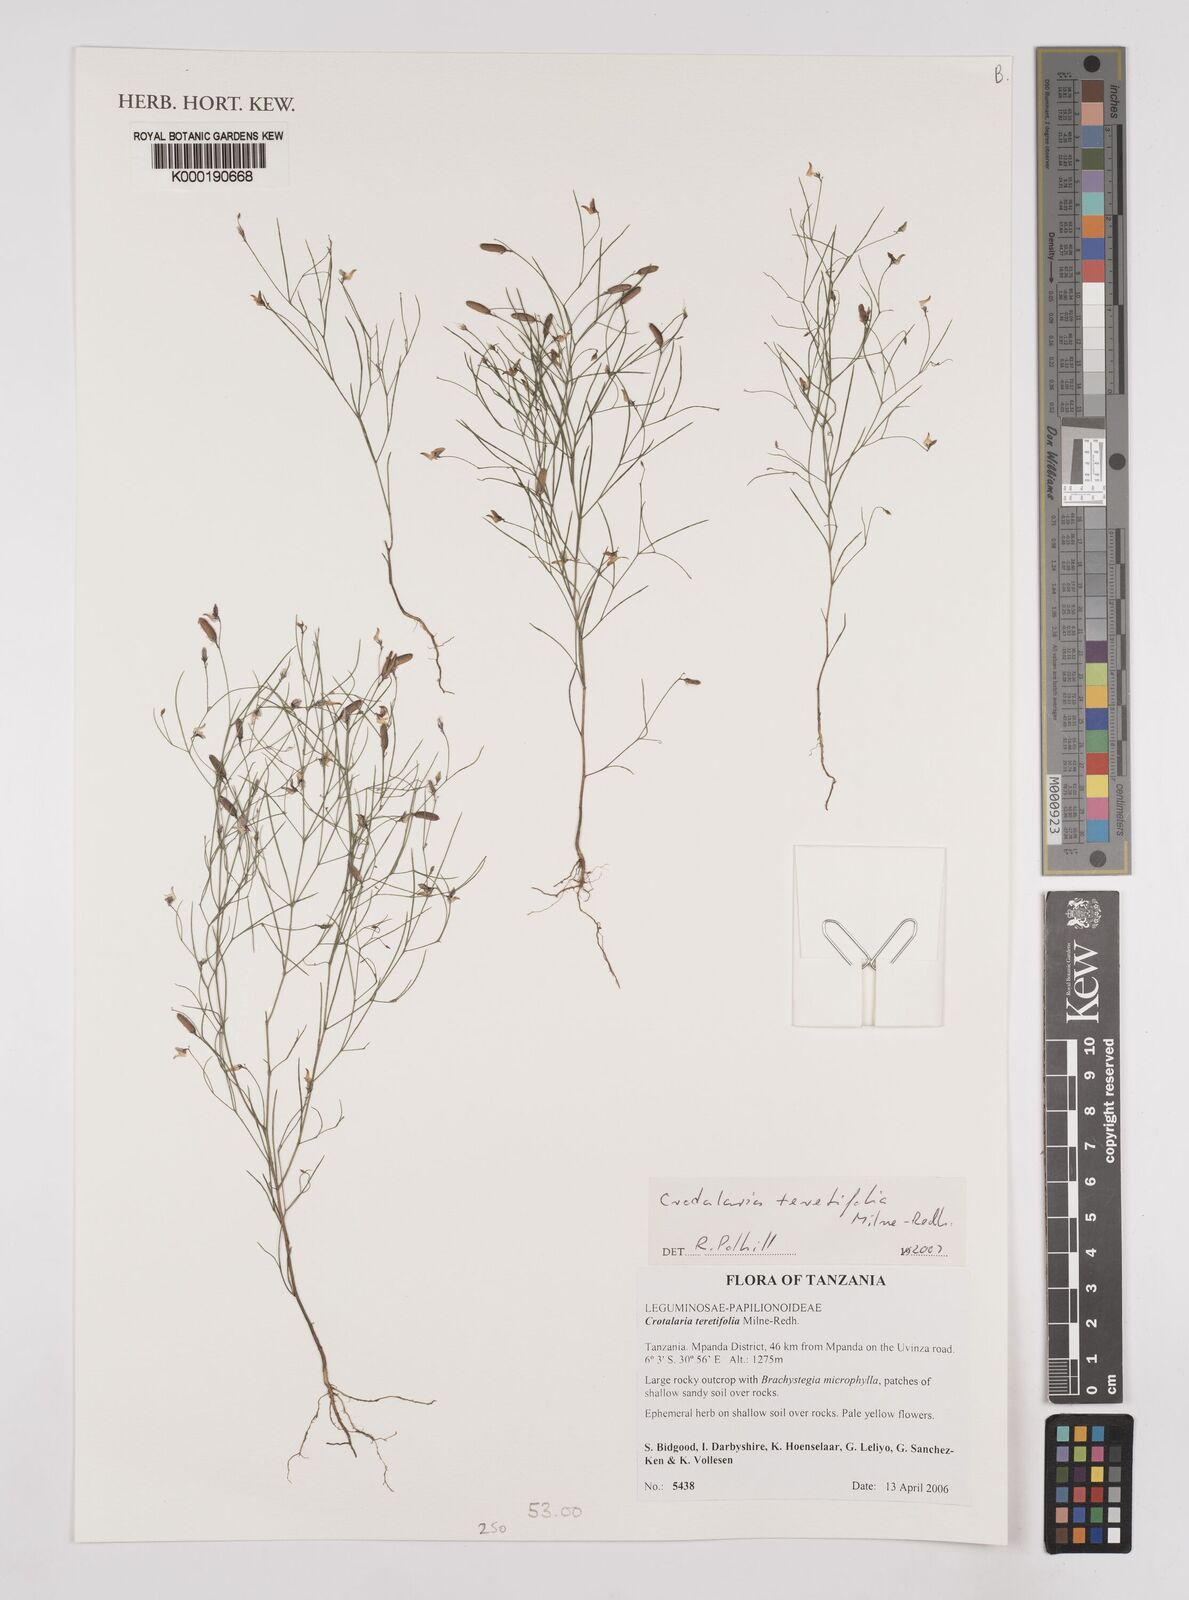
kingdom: Plantae
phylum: Tracheophyta
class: Magnoliopsida
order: Fabales
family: Fabaceae
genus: Crotalaria
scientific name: Crotalaria teretifolia
